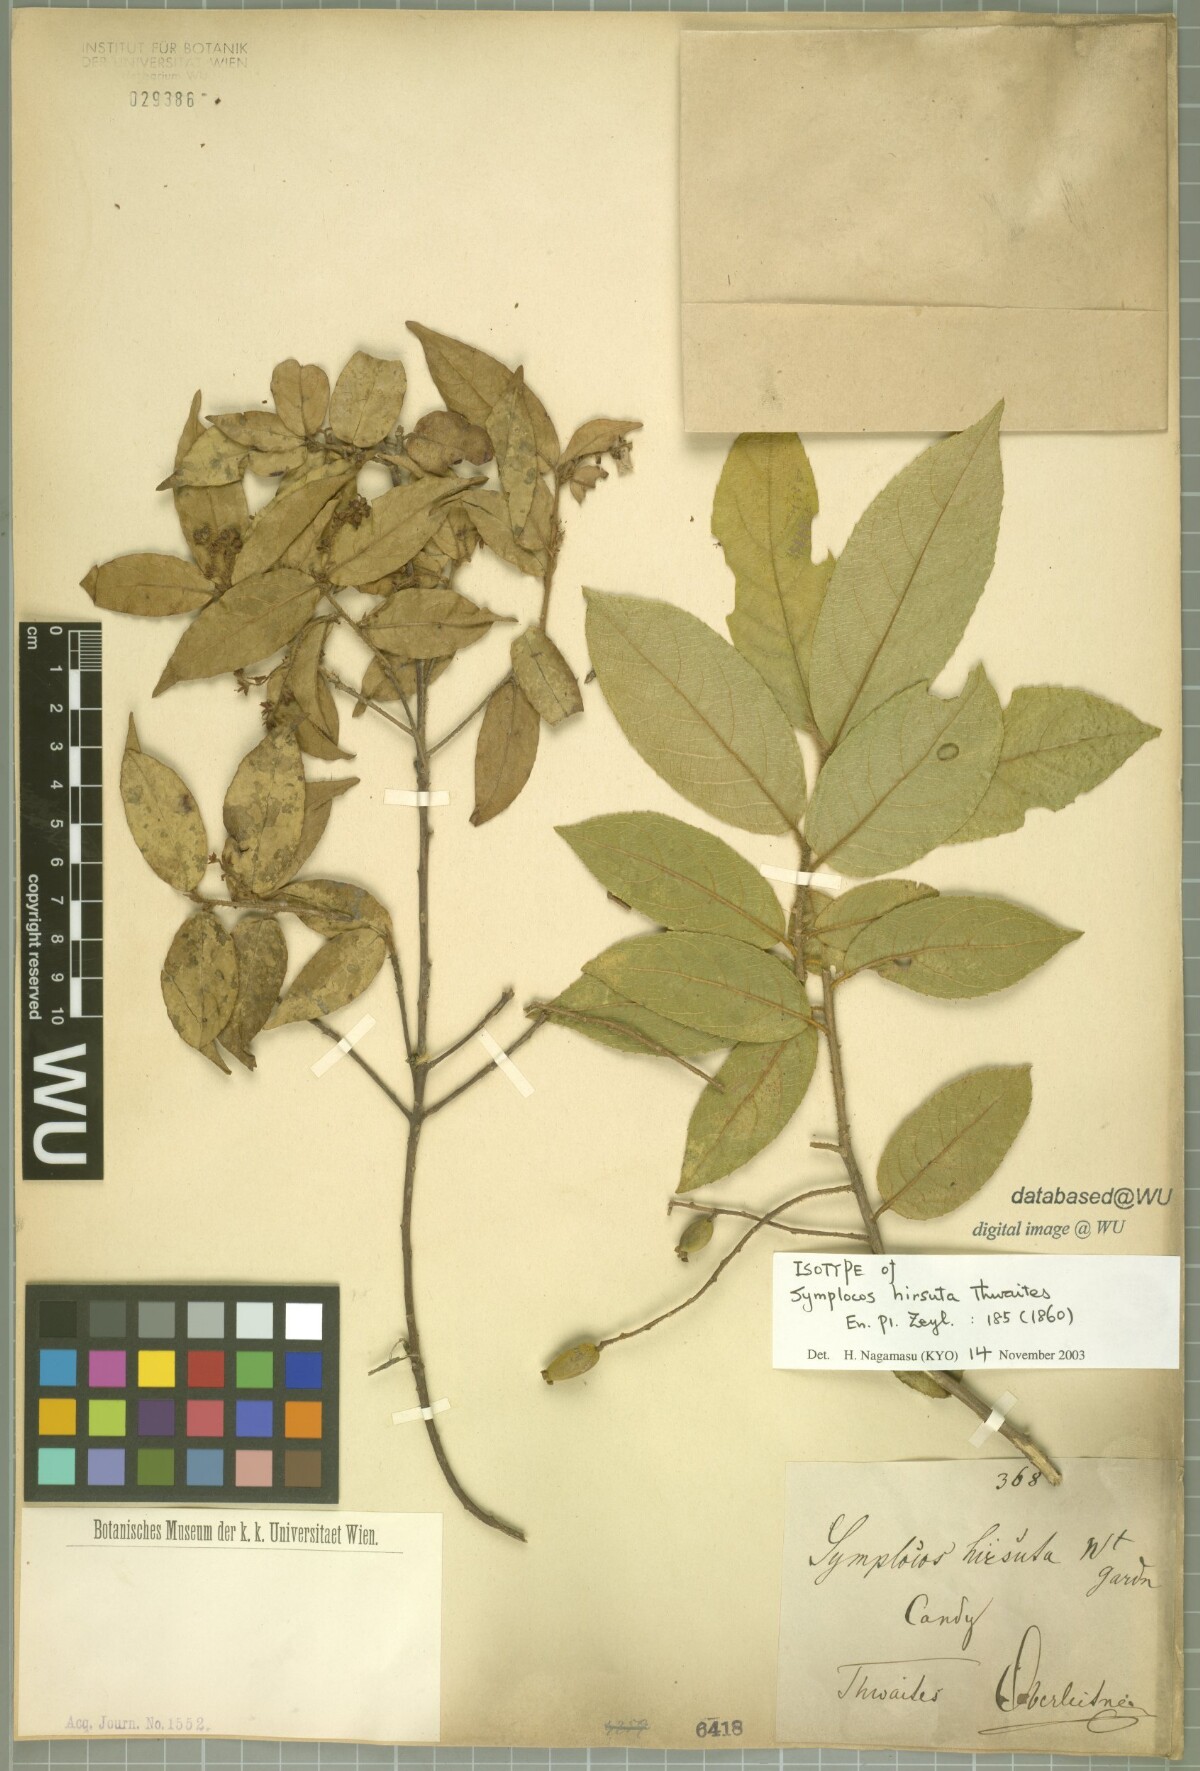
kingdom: Plantae
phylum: Tracheophyta
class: Magnoliopsida
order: Ericales
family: Symplocaceae
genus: Symplocos
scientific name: Symplocos elegans
